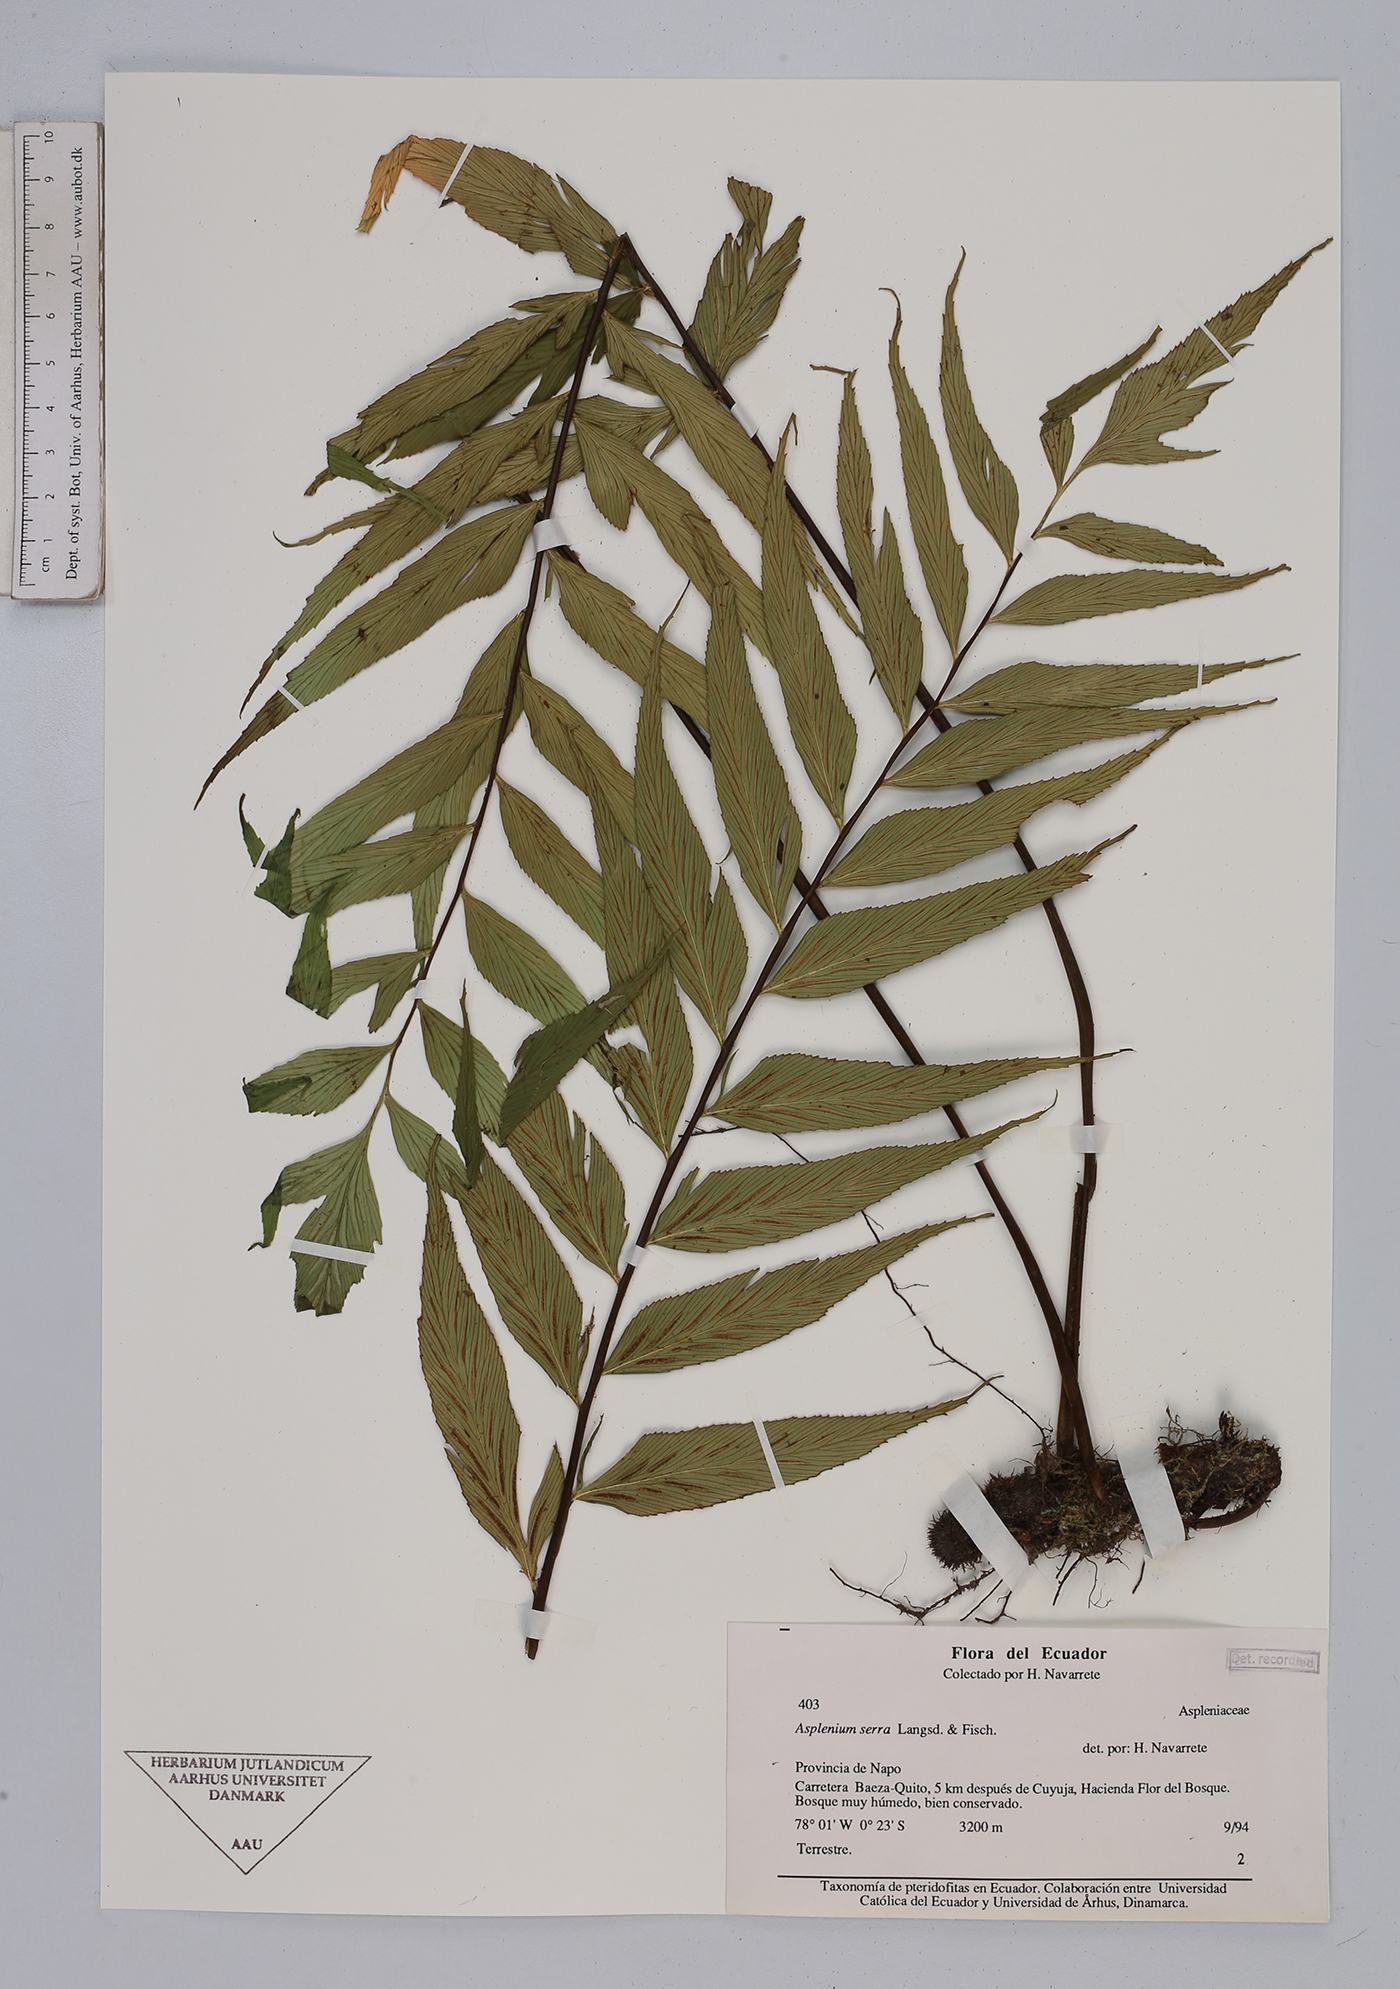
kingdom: Plantae
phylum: Tracheophyta
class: Polypodiopsida
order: Polypodiales
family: Aspleniaceae
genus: Asplenium
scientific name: Asplenium
